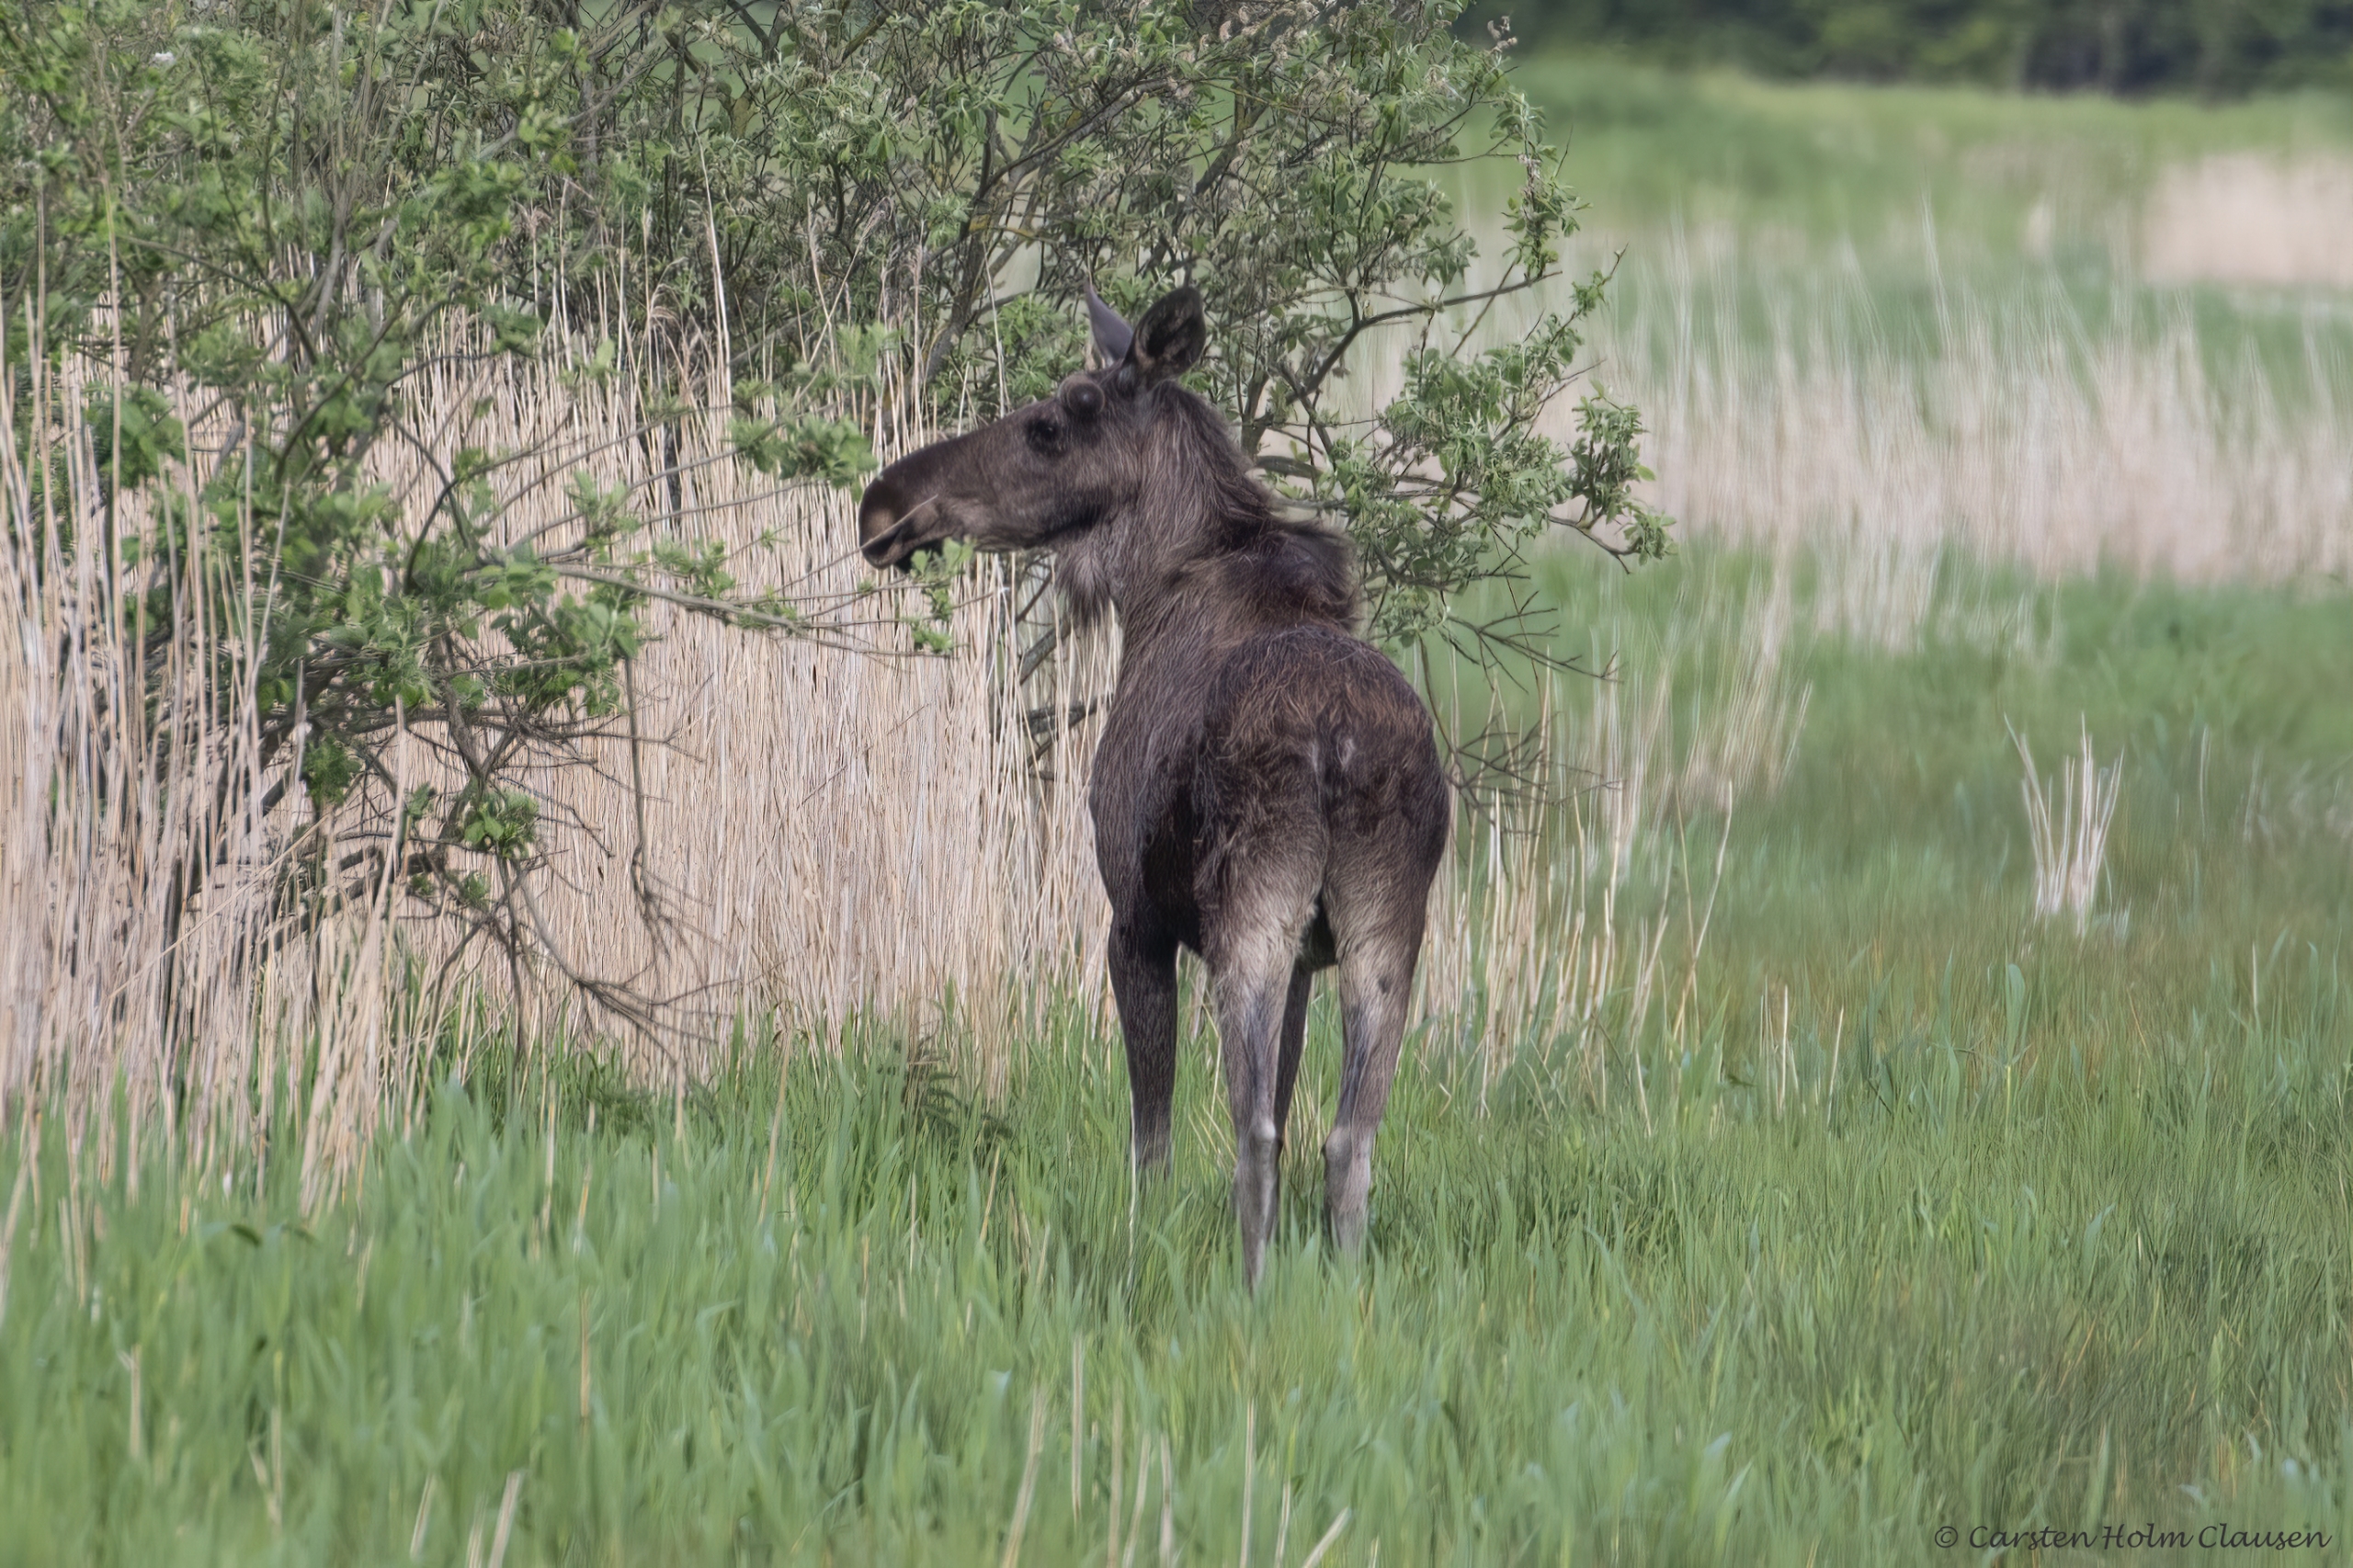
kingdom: Animalia
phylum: Chordata
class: Mammalia
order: Artiodactyla
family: Cervidae
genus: Alces
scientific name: Alces alces
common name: Elg
